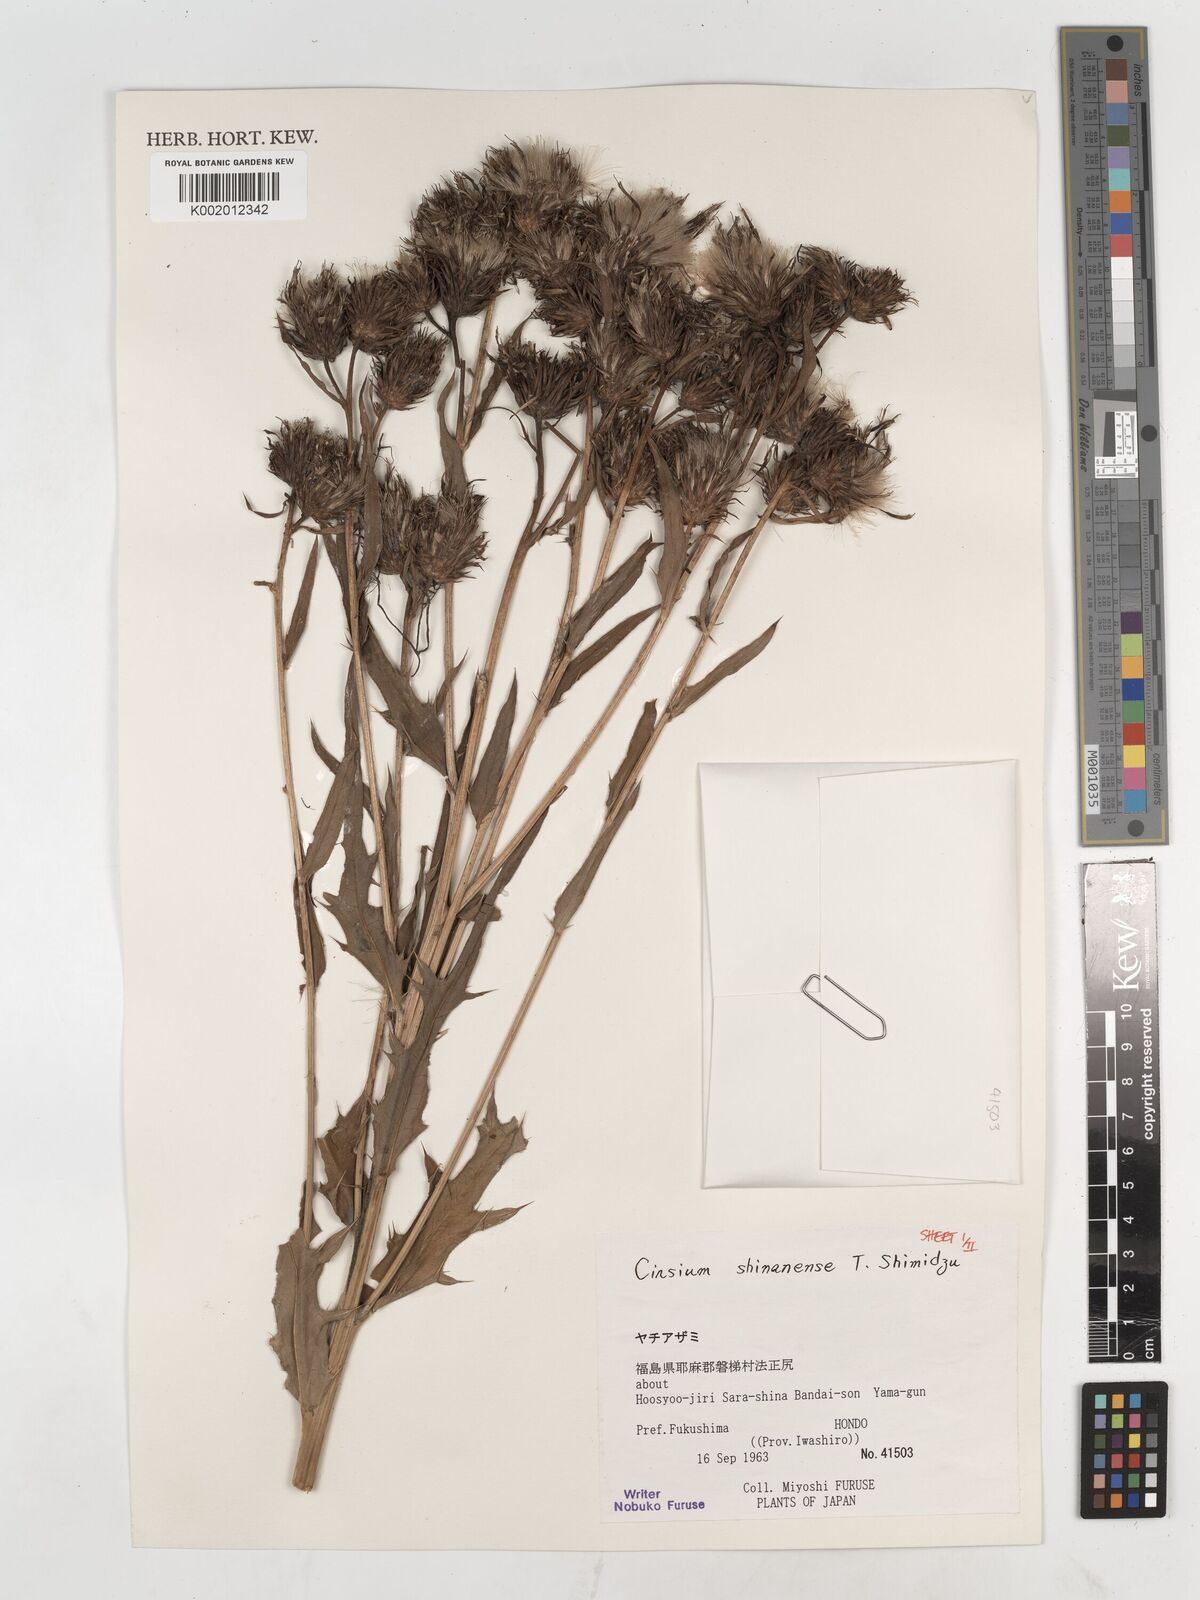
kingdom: Plantae
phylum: Tracheophyta
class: Magnoliopsida
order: Asterales
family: Asteraceae
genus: Cirsium
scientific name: Cirsium shinanense
